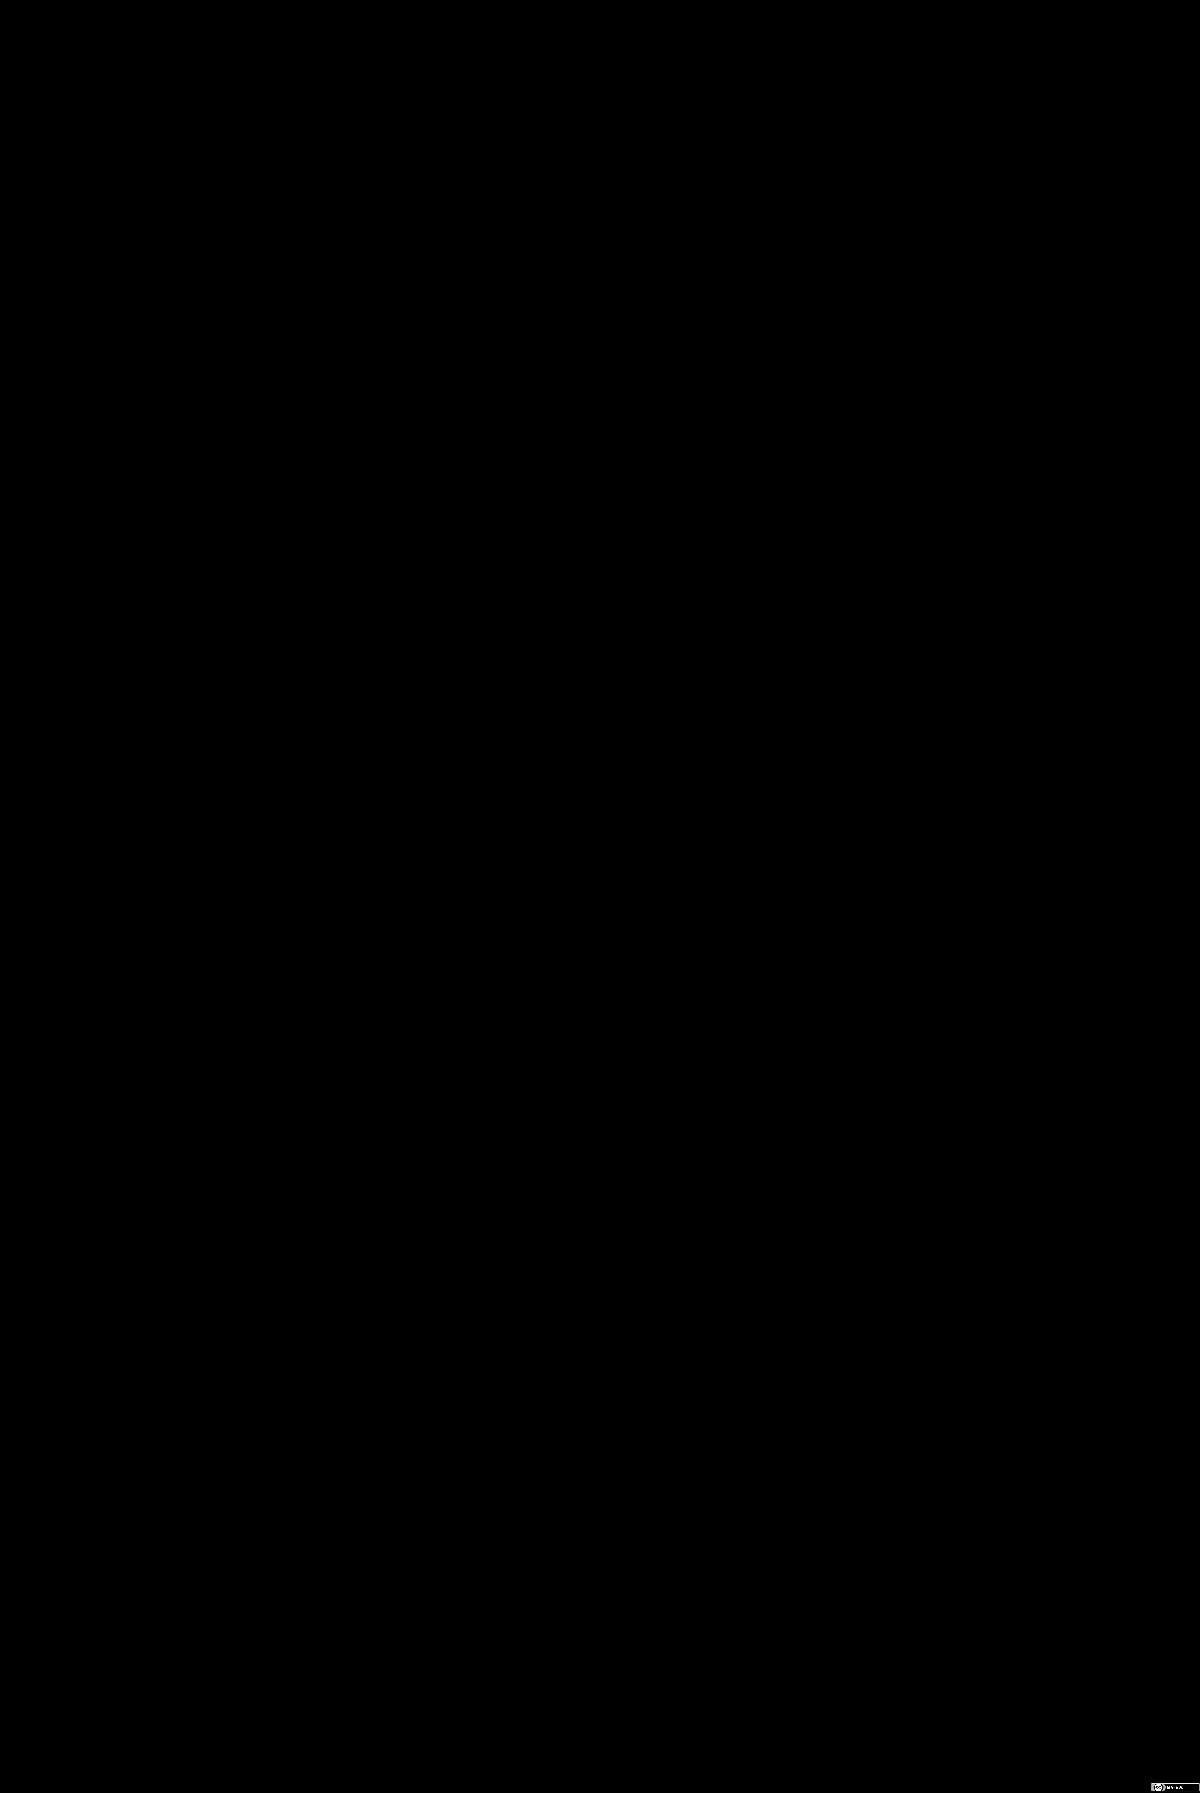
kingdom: Plantae
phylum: Tracheophyta
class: Magnoliopsida
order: Asterales
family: Asteraceae
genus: Melampodium
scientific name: Melampodium gracile
